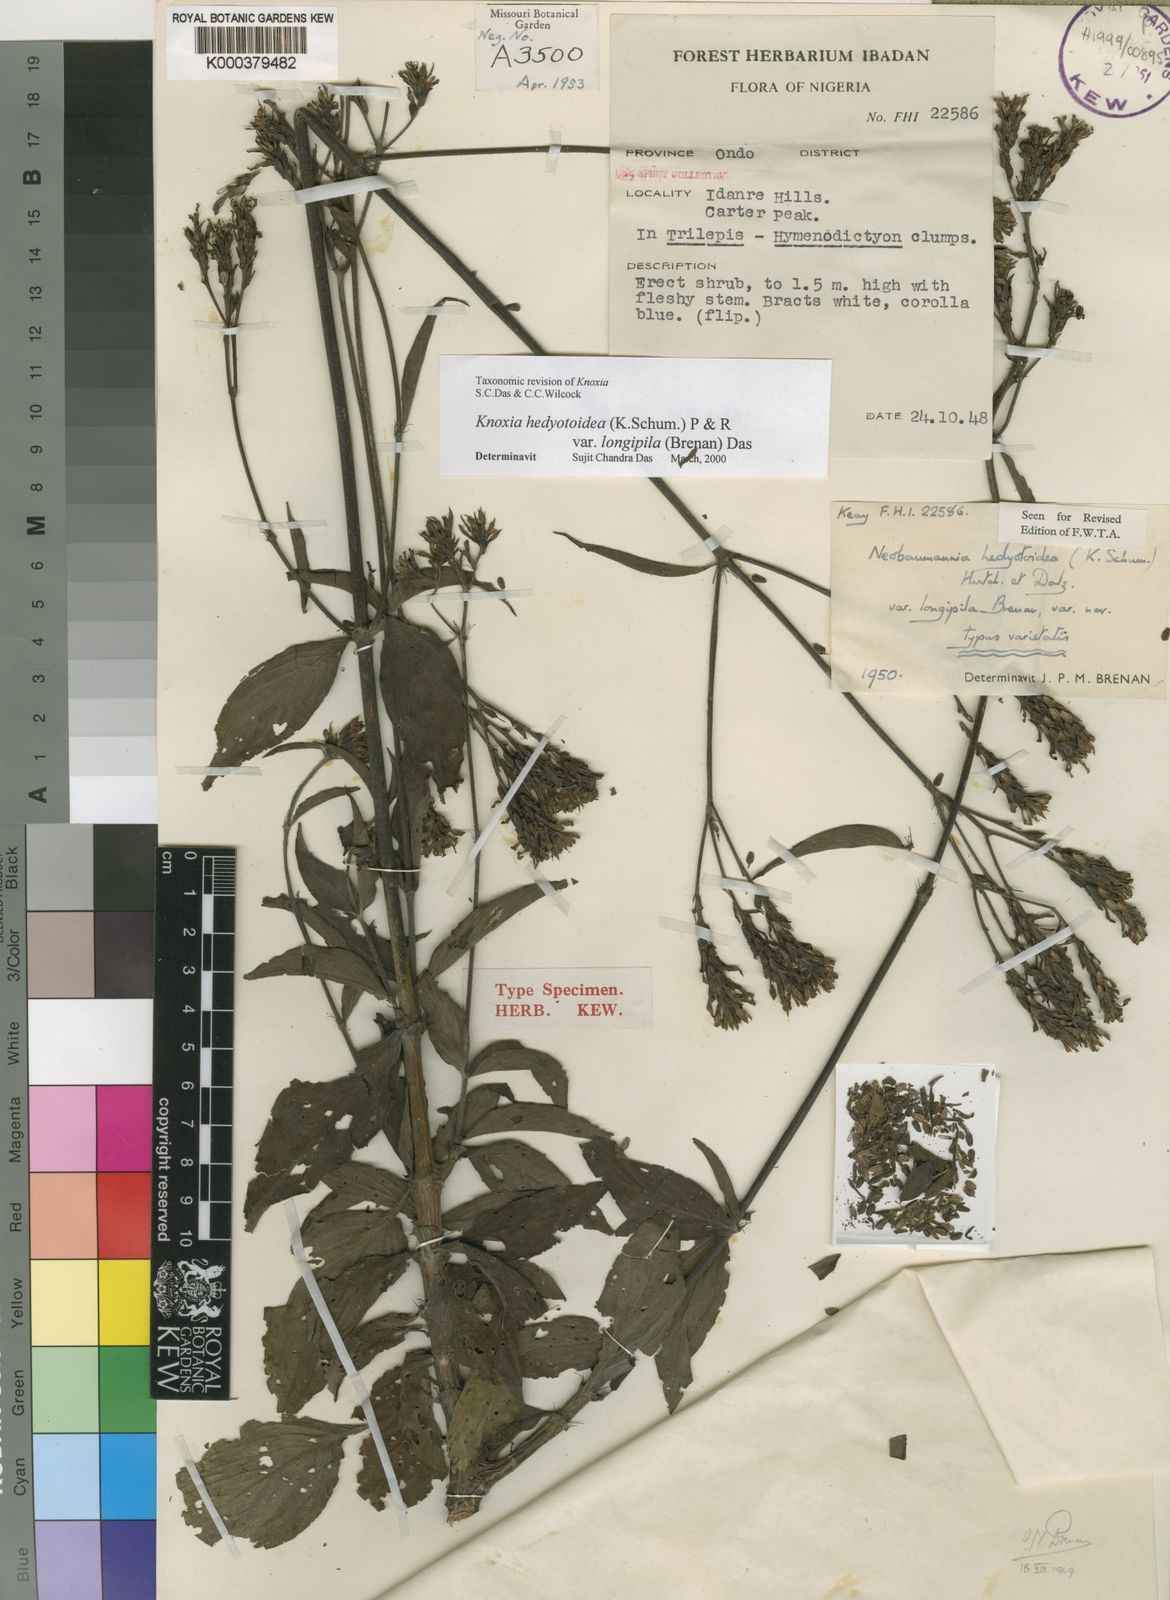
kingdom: Plantae
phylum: Tracheophyta
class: Magnoliopsida
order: Gentianales
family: Rubiaceae
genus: Knoxia
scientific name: Knoxia hedyotoidea
